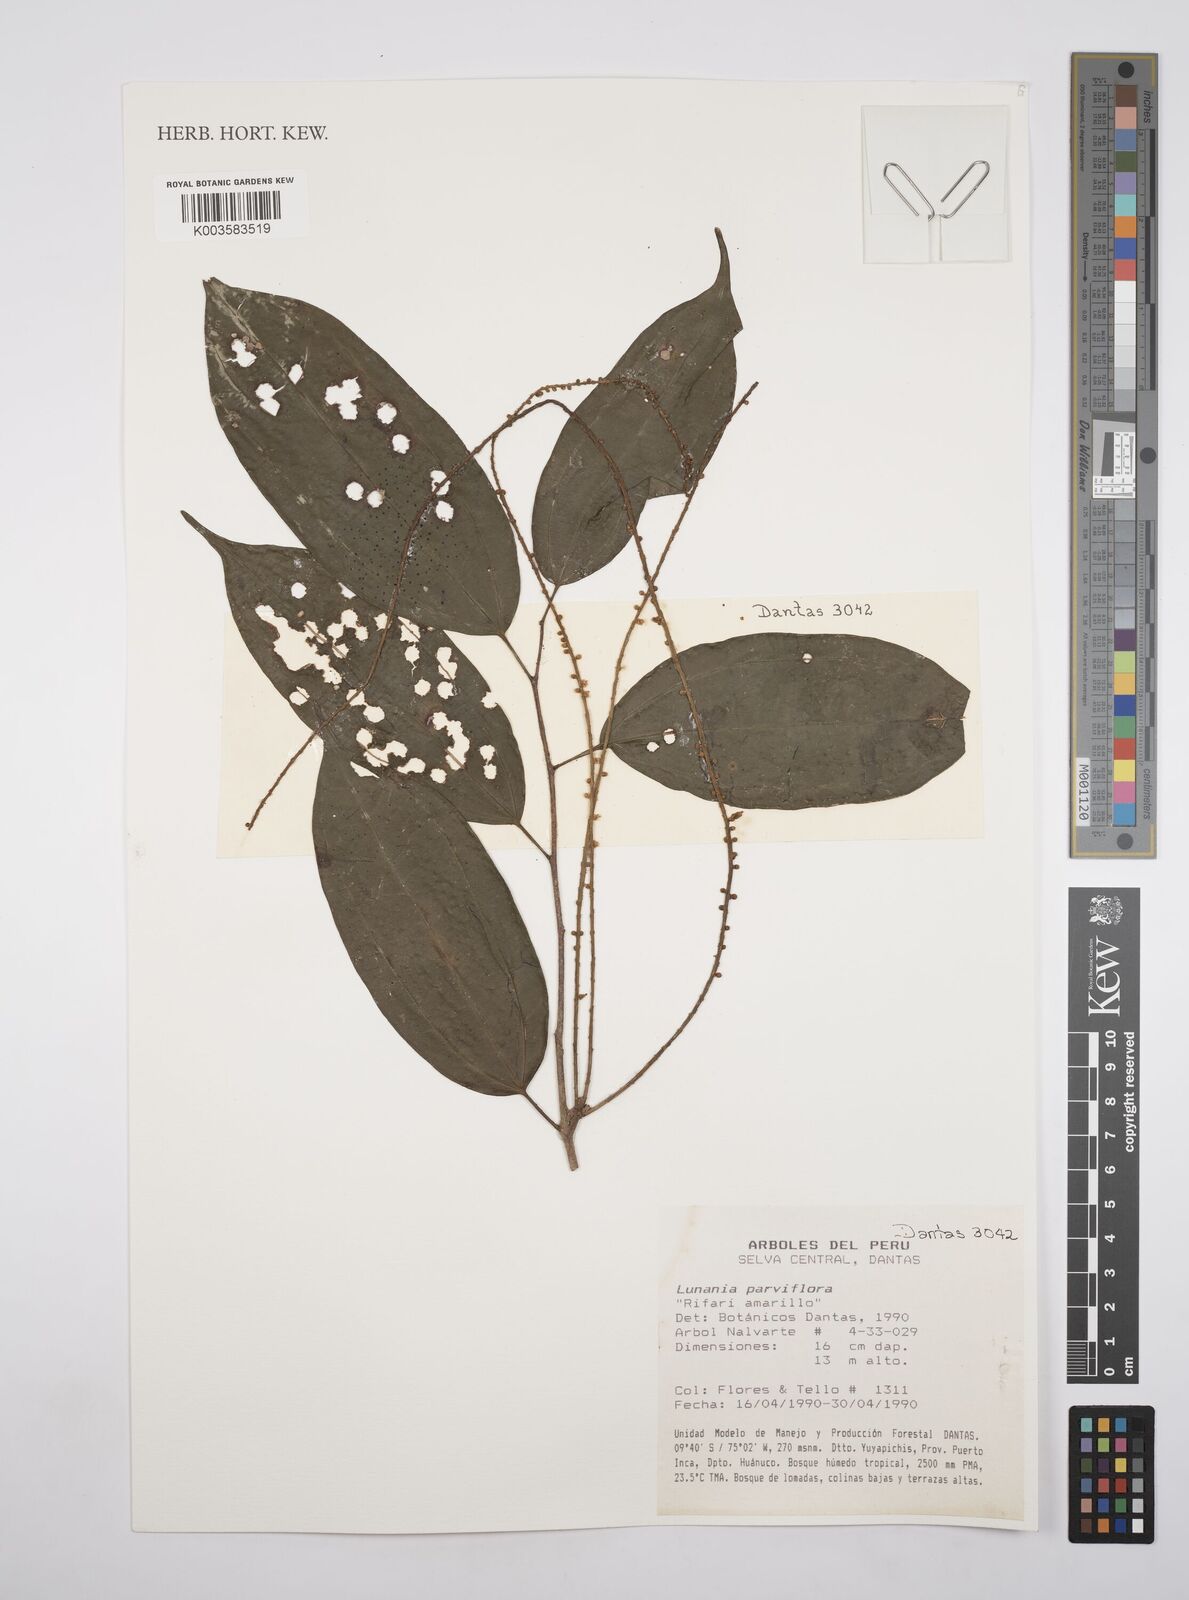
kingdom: Plantae
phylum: Tracheophyta
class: Magnoliopsida
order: Malpighiales
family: Salicaceae
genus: Lunania
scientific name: Lunania parviflora
